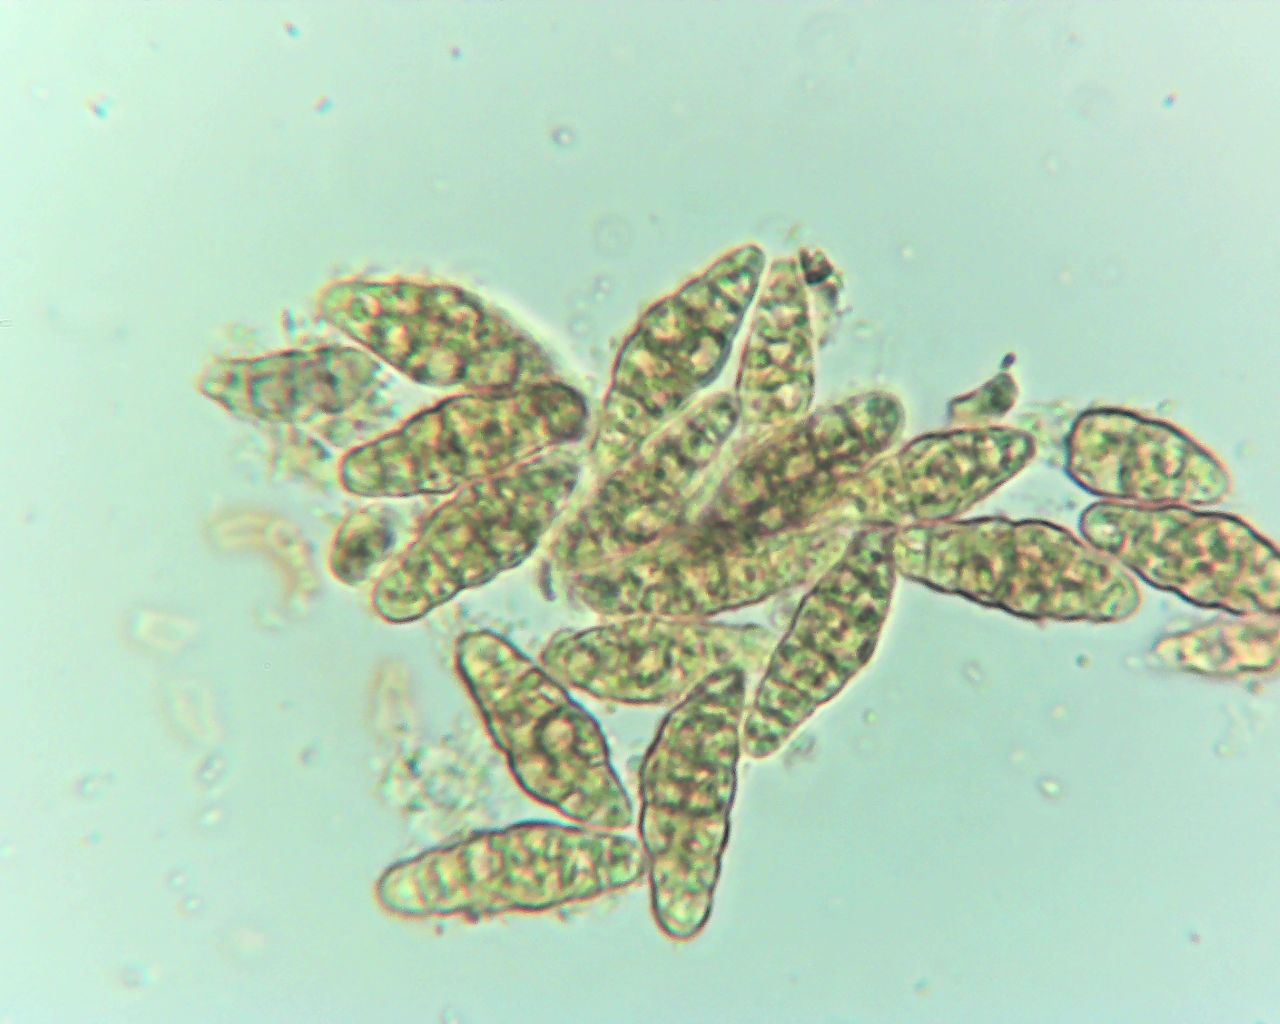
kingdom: Fungi
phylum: Ascomycota
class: Eurotiomycetes
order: Chaetothyriales
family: Herpotrichiellaceae
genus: Capronia
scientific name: Capronia nigerrima
